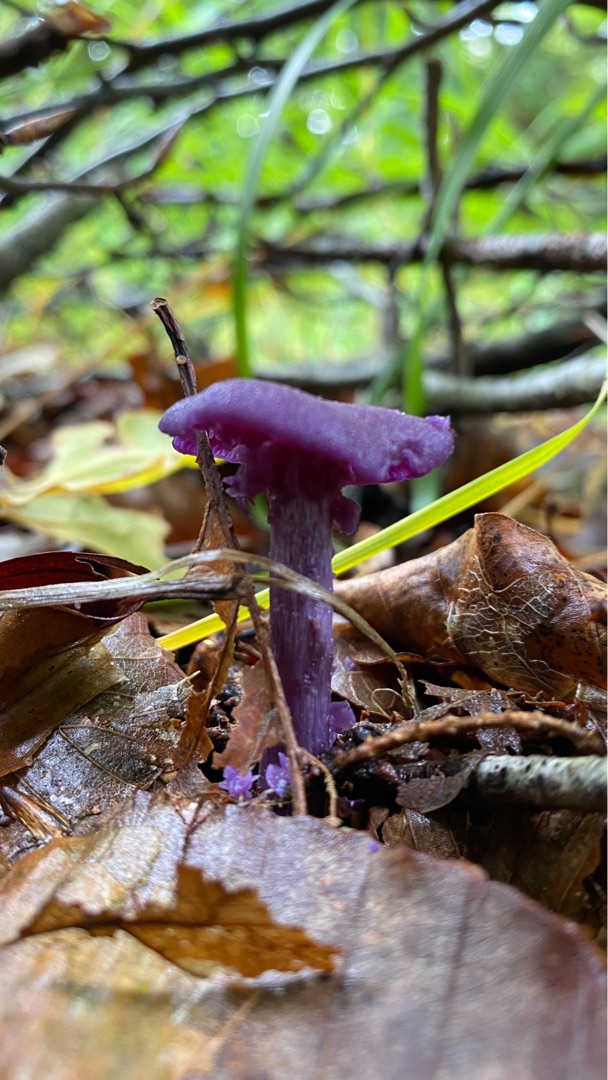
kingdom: Fungi
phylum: Basidiomycota
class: Agaricomycetes
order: Agaricales
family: Hydnangiaceae
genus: Laccaria
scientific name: Laccaria amethystina
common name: Violet ametysthat
